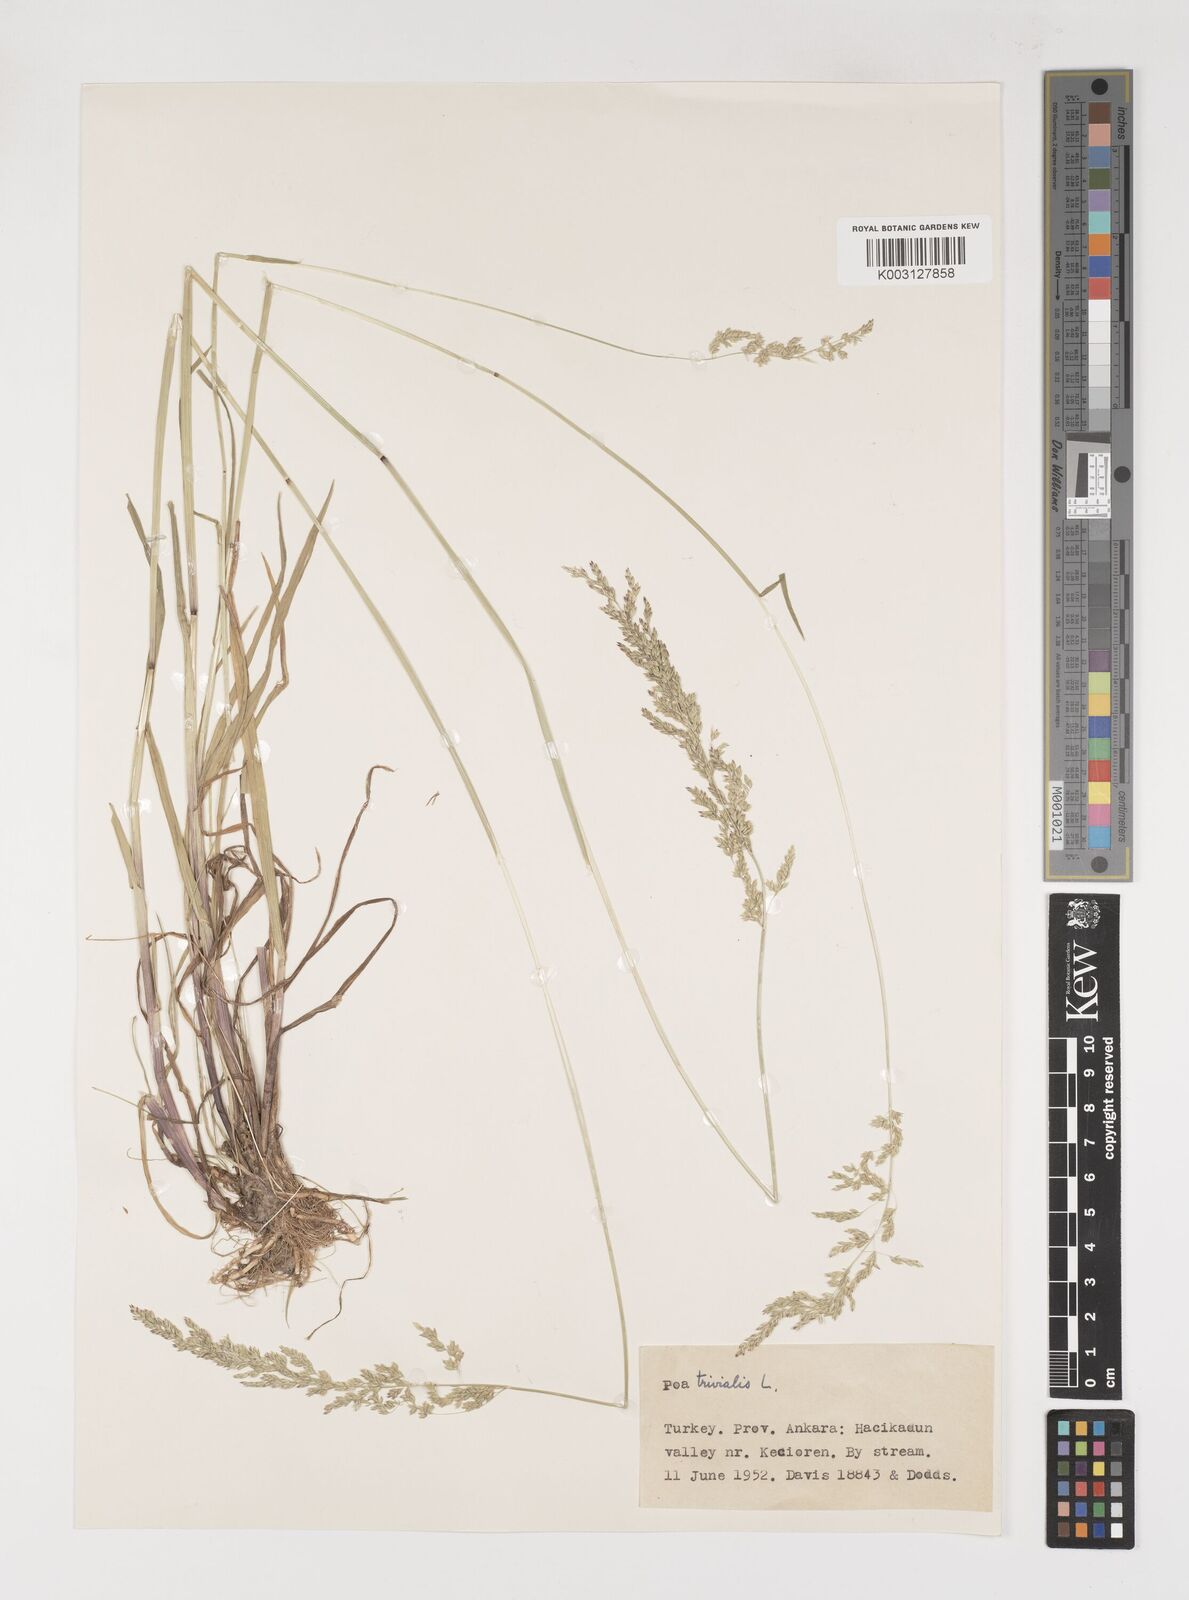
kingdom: Plantae
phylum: Tracheophyta
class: Liliopsida
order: Poales
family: Poaceae
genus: Poa
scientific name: Poa trivialis
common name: Rough bluegrass
